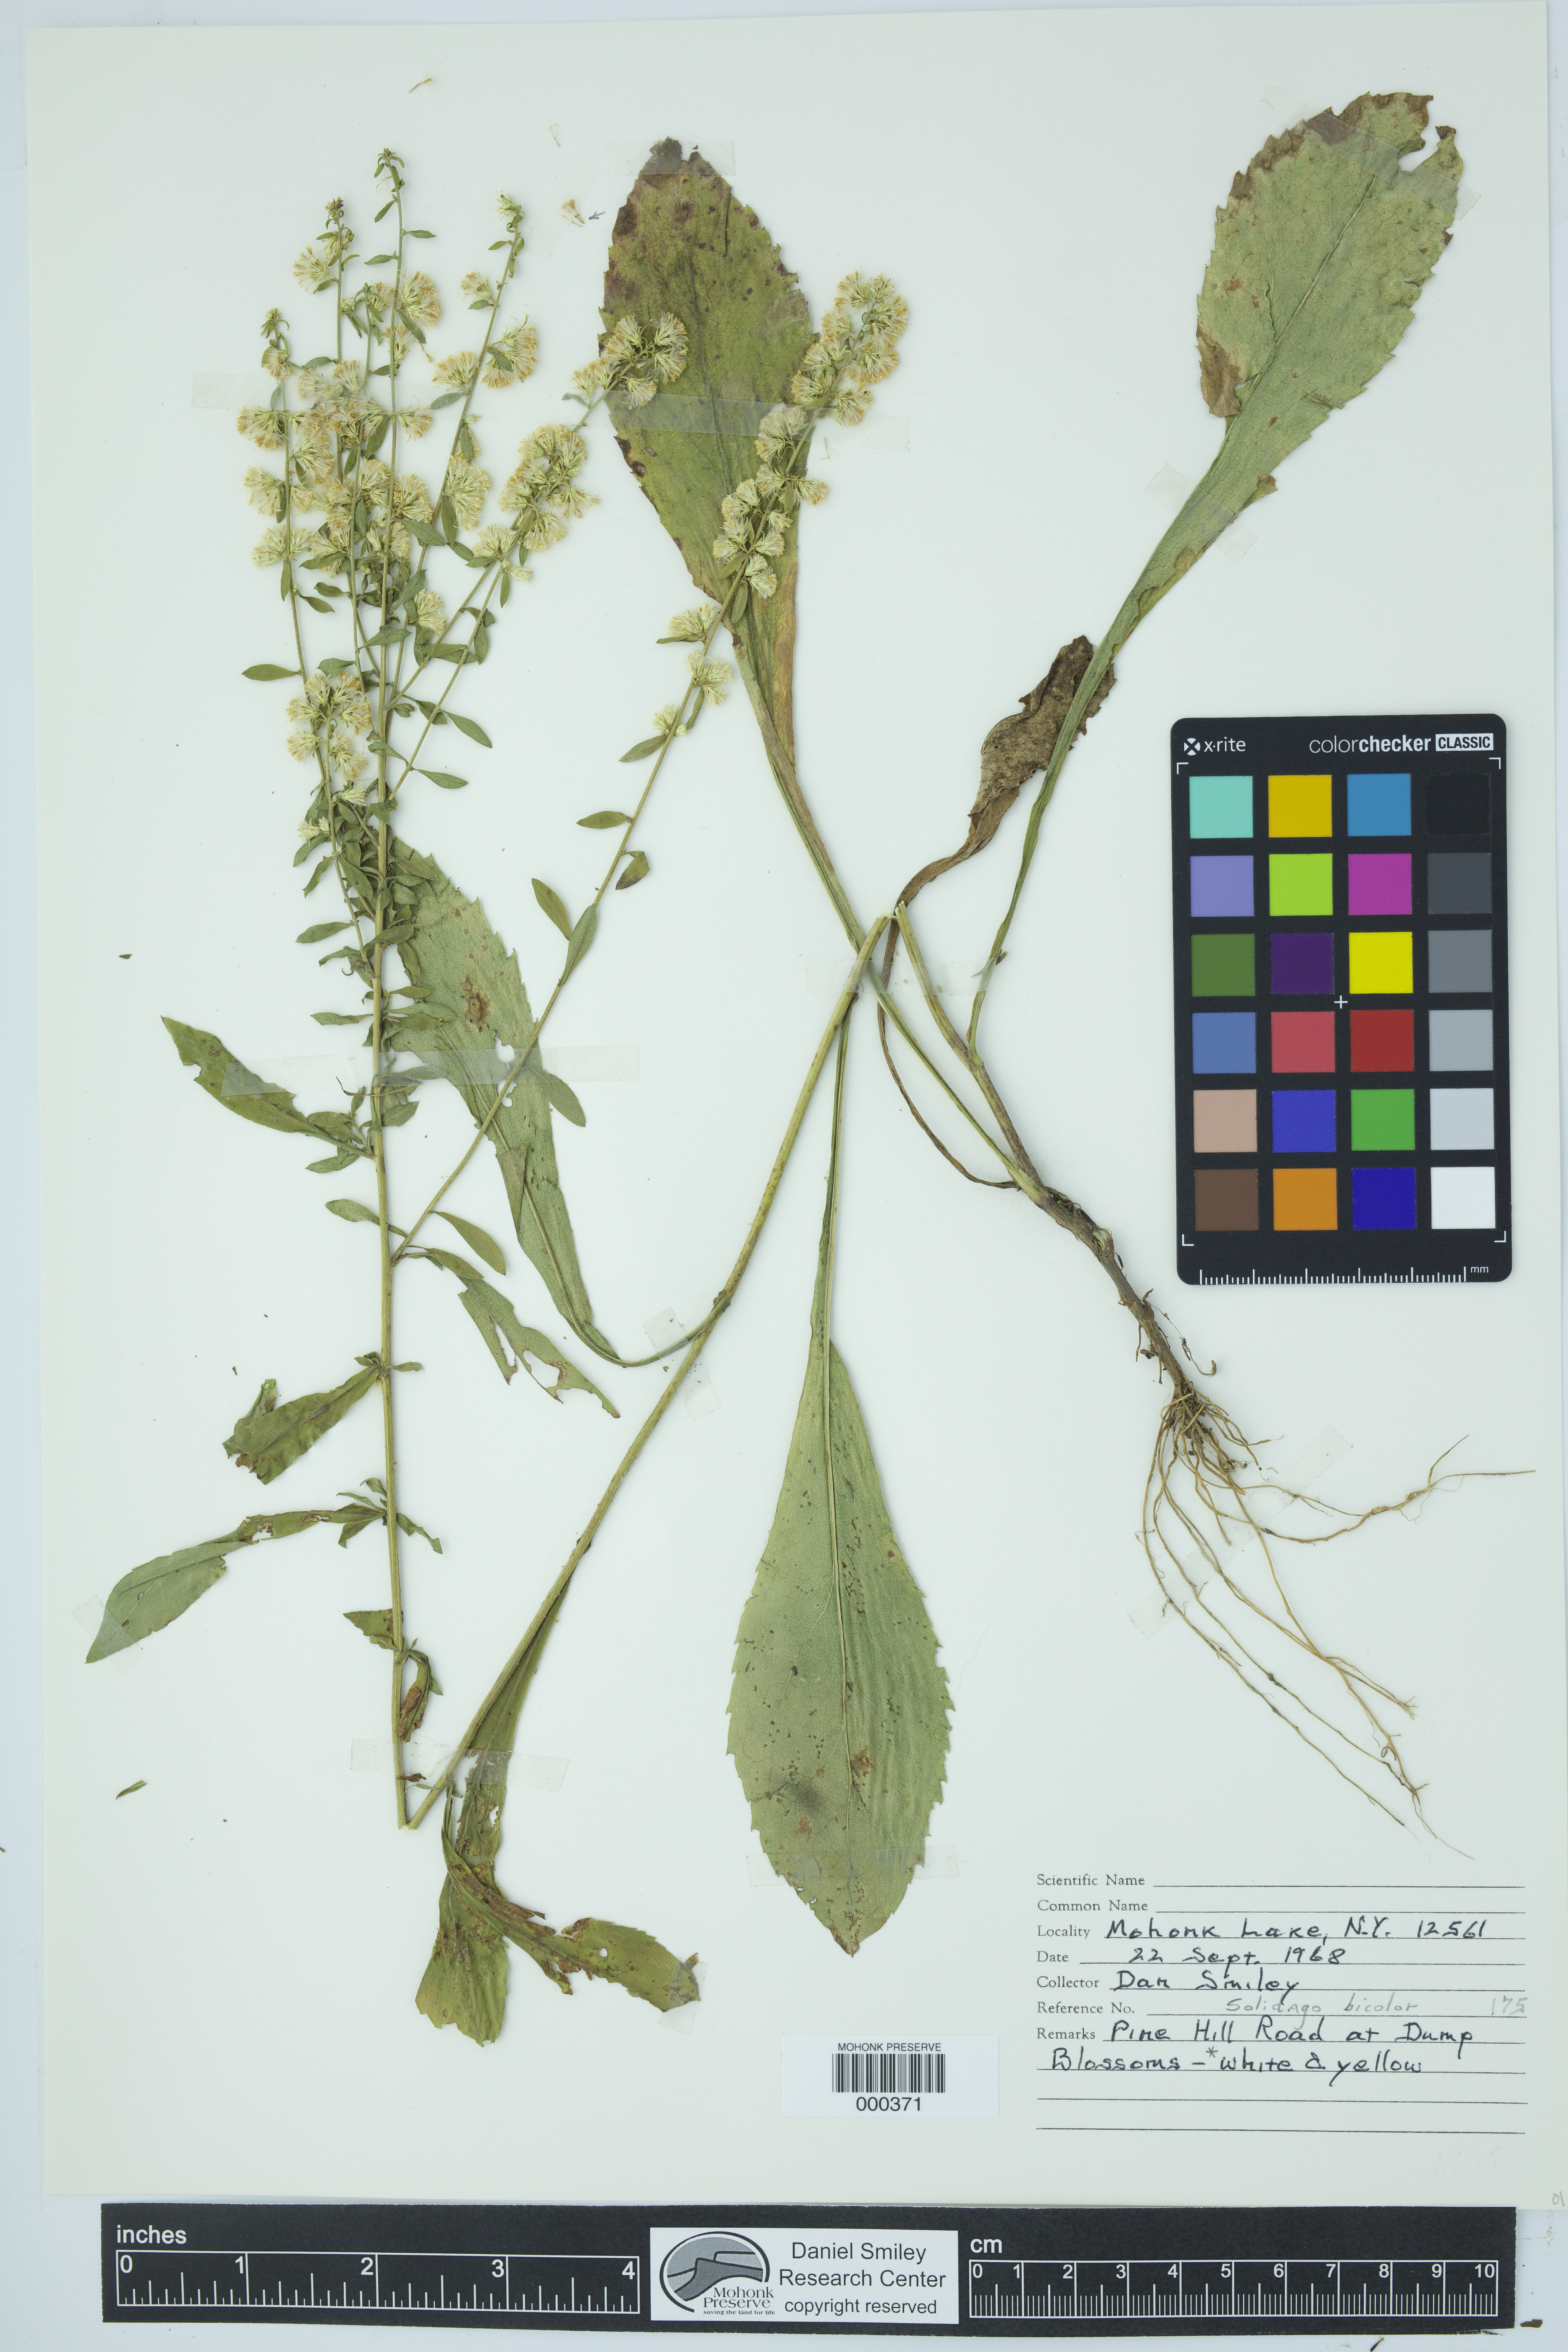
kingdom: Plantae
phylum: Tracheophyta
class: Magnoliopsida
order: Asterales
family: Asteraceae
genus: Solidago
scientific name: Solidago bicolor
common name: Silverrod
